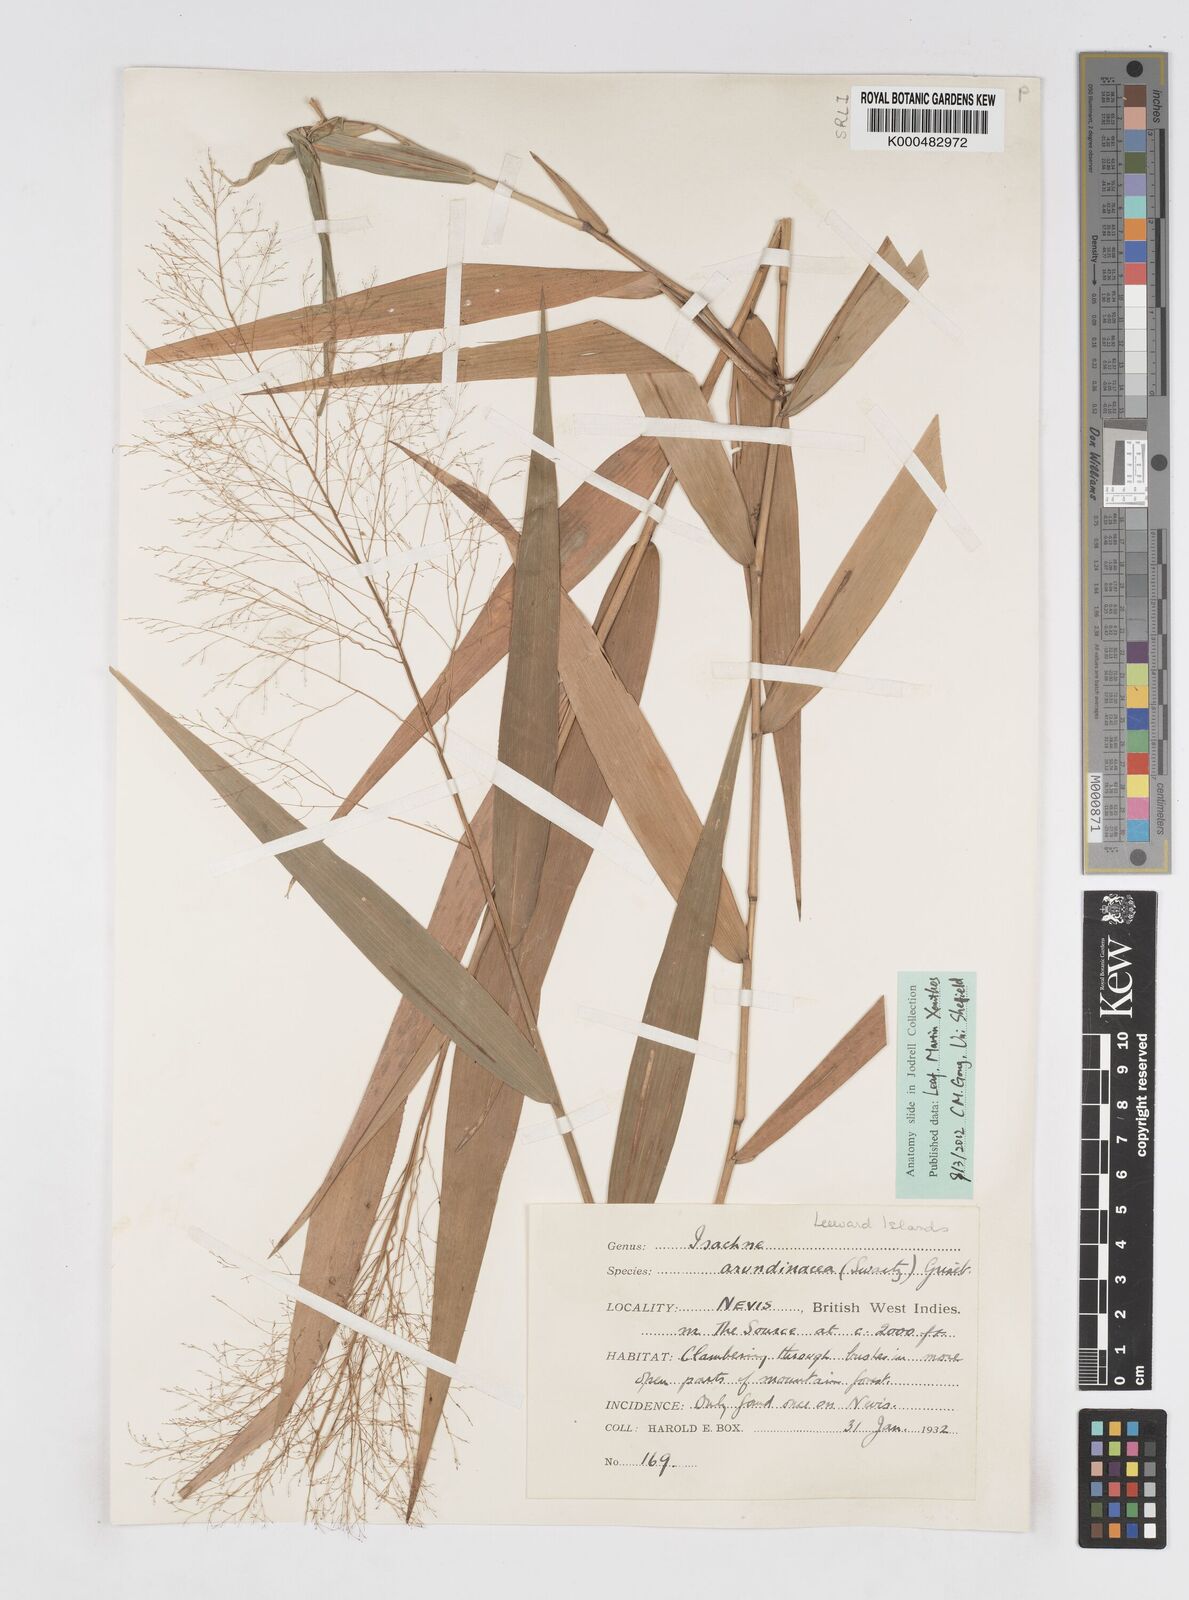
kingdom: Plantae
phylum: Tracheophyta
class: Liliopsida
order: Poales
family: Poaceae
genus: Isachne
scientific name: Isachne
